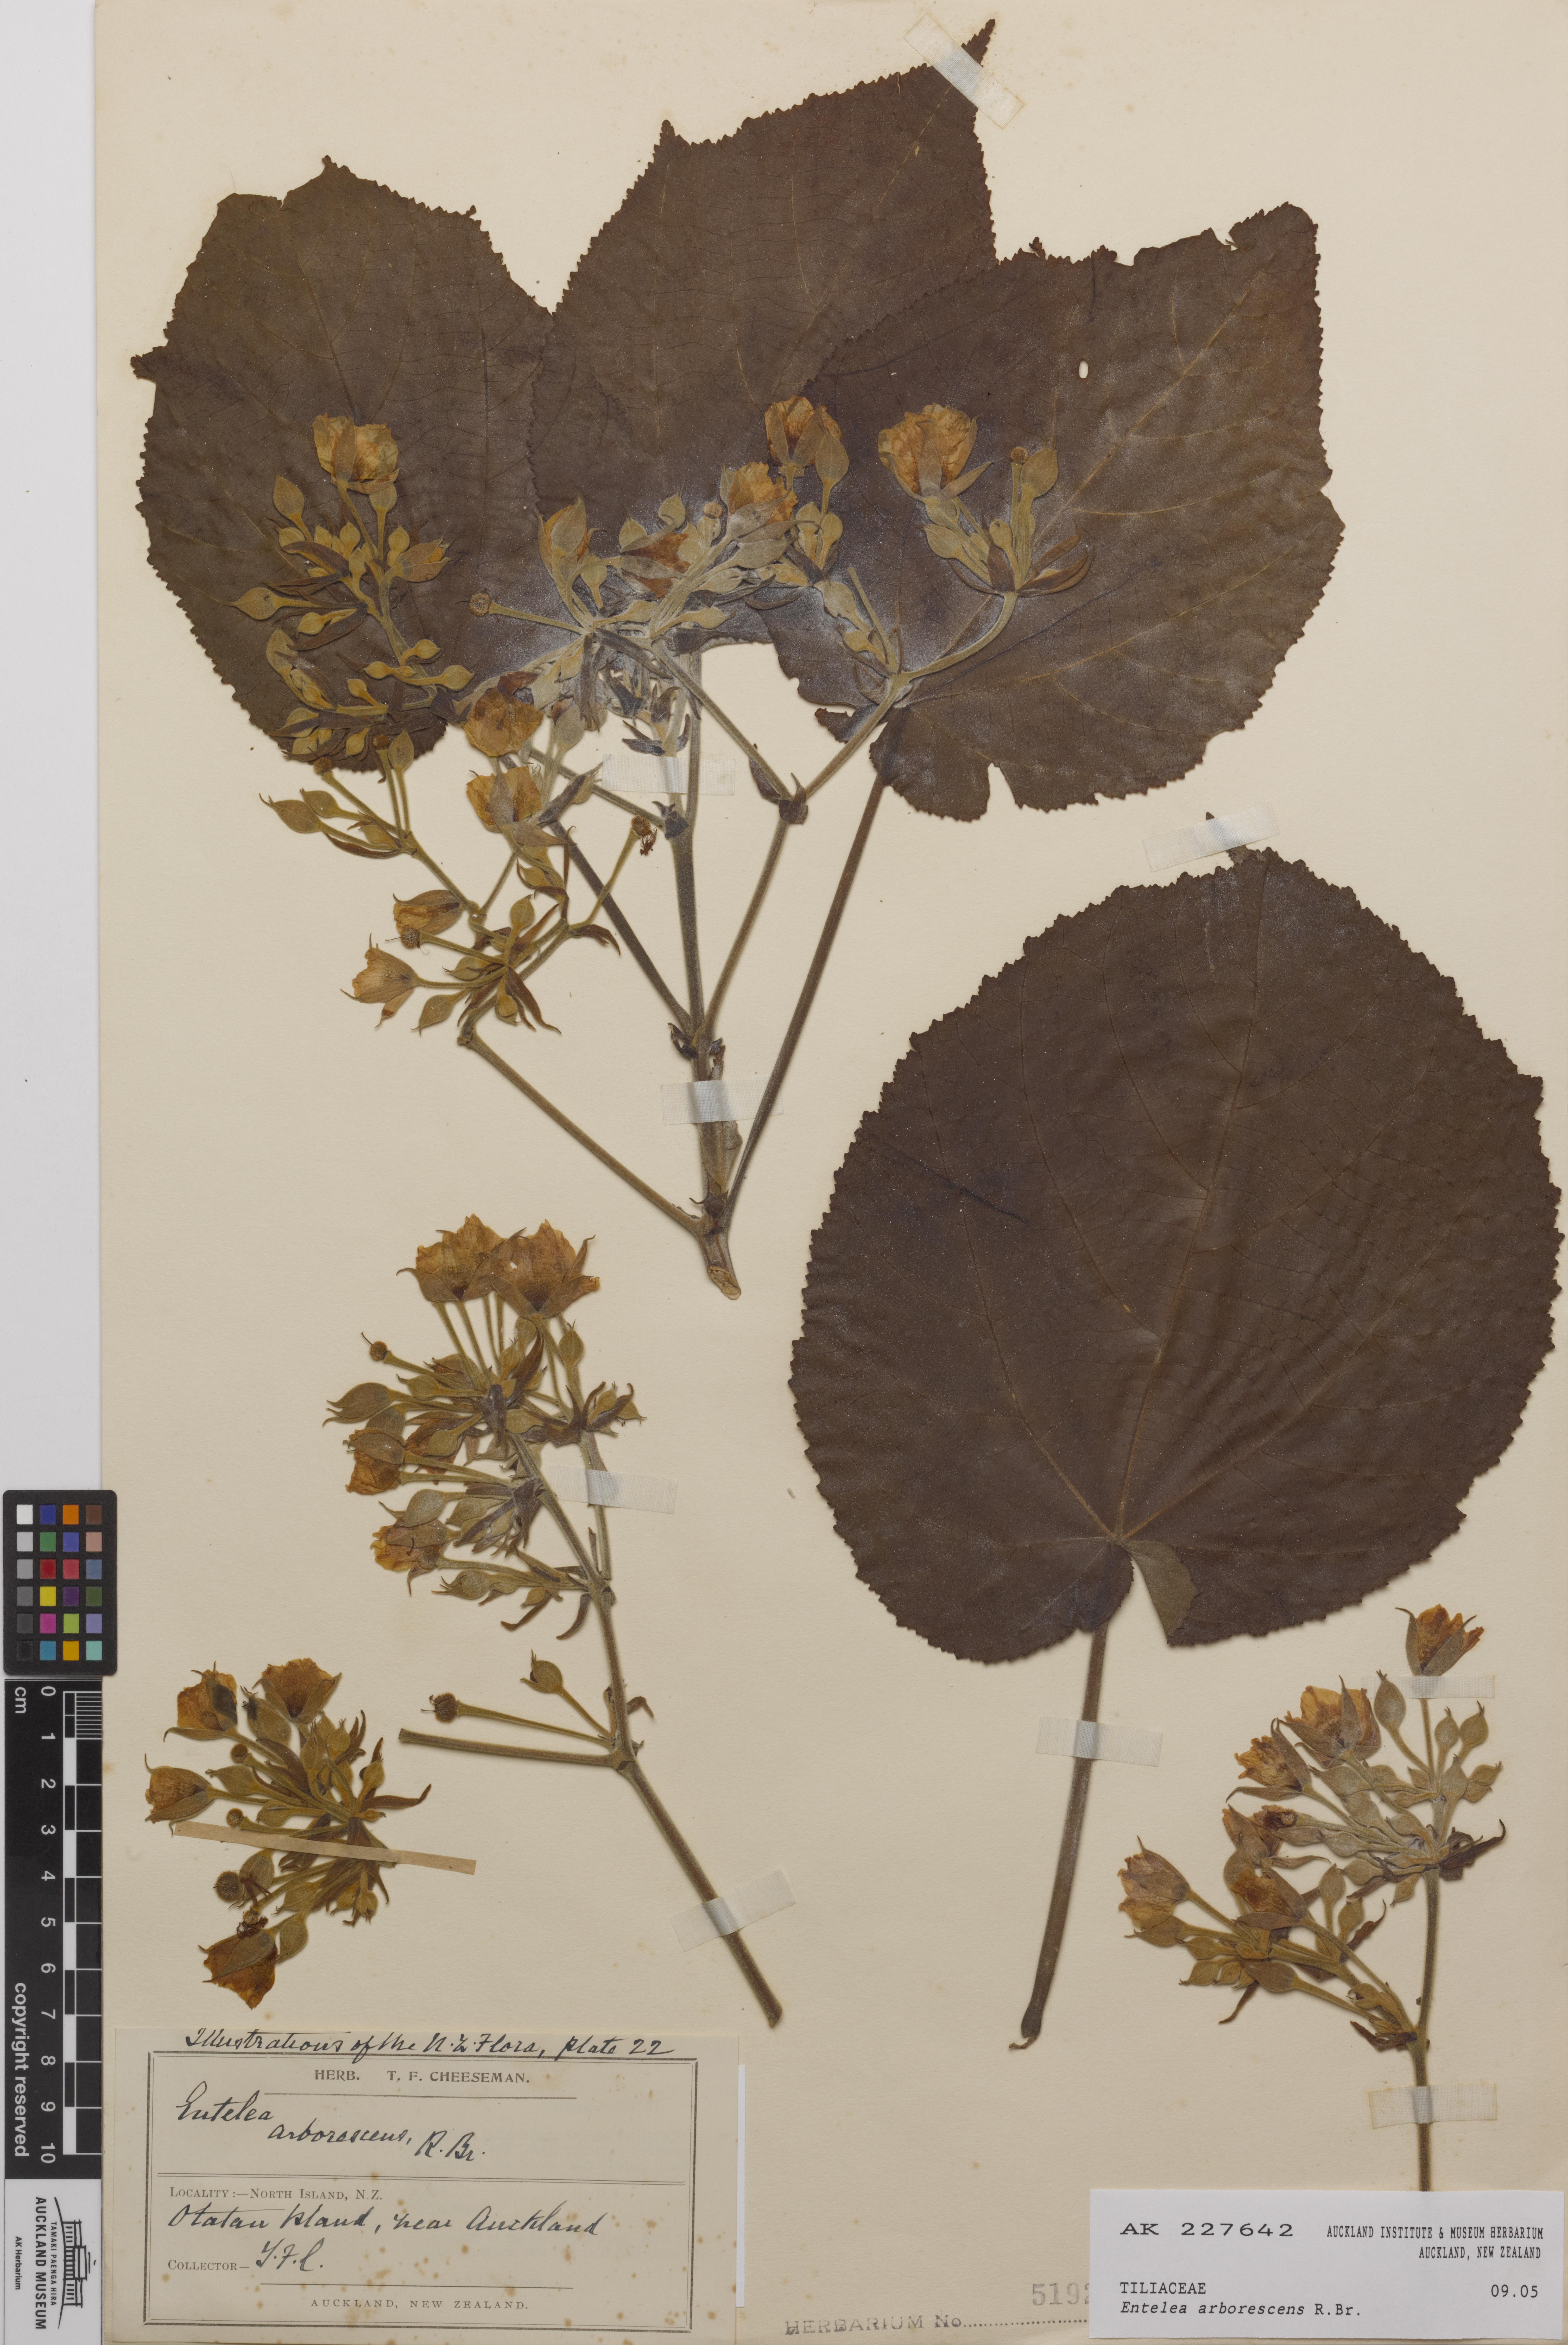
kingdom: Plantae
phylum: Tracheophyta
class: Magnoliopsida
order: Malvales
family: Malvaceae
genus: Entelea
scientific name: Entelea arborescens
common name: New zealand-mulberry
